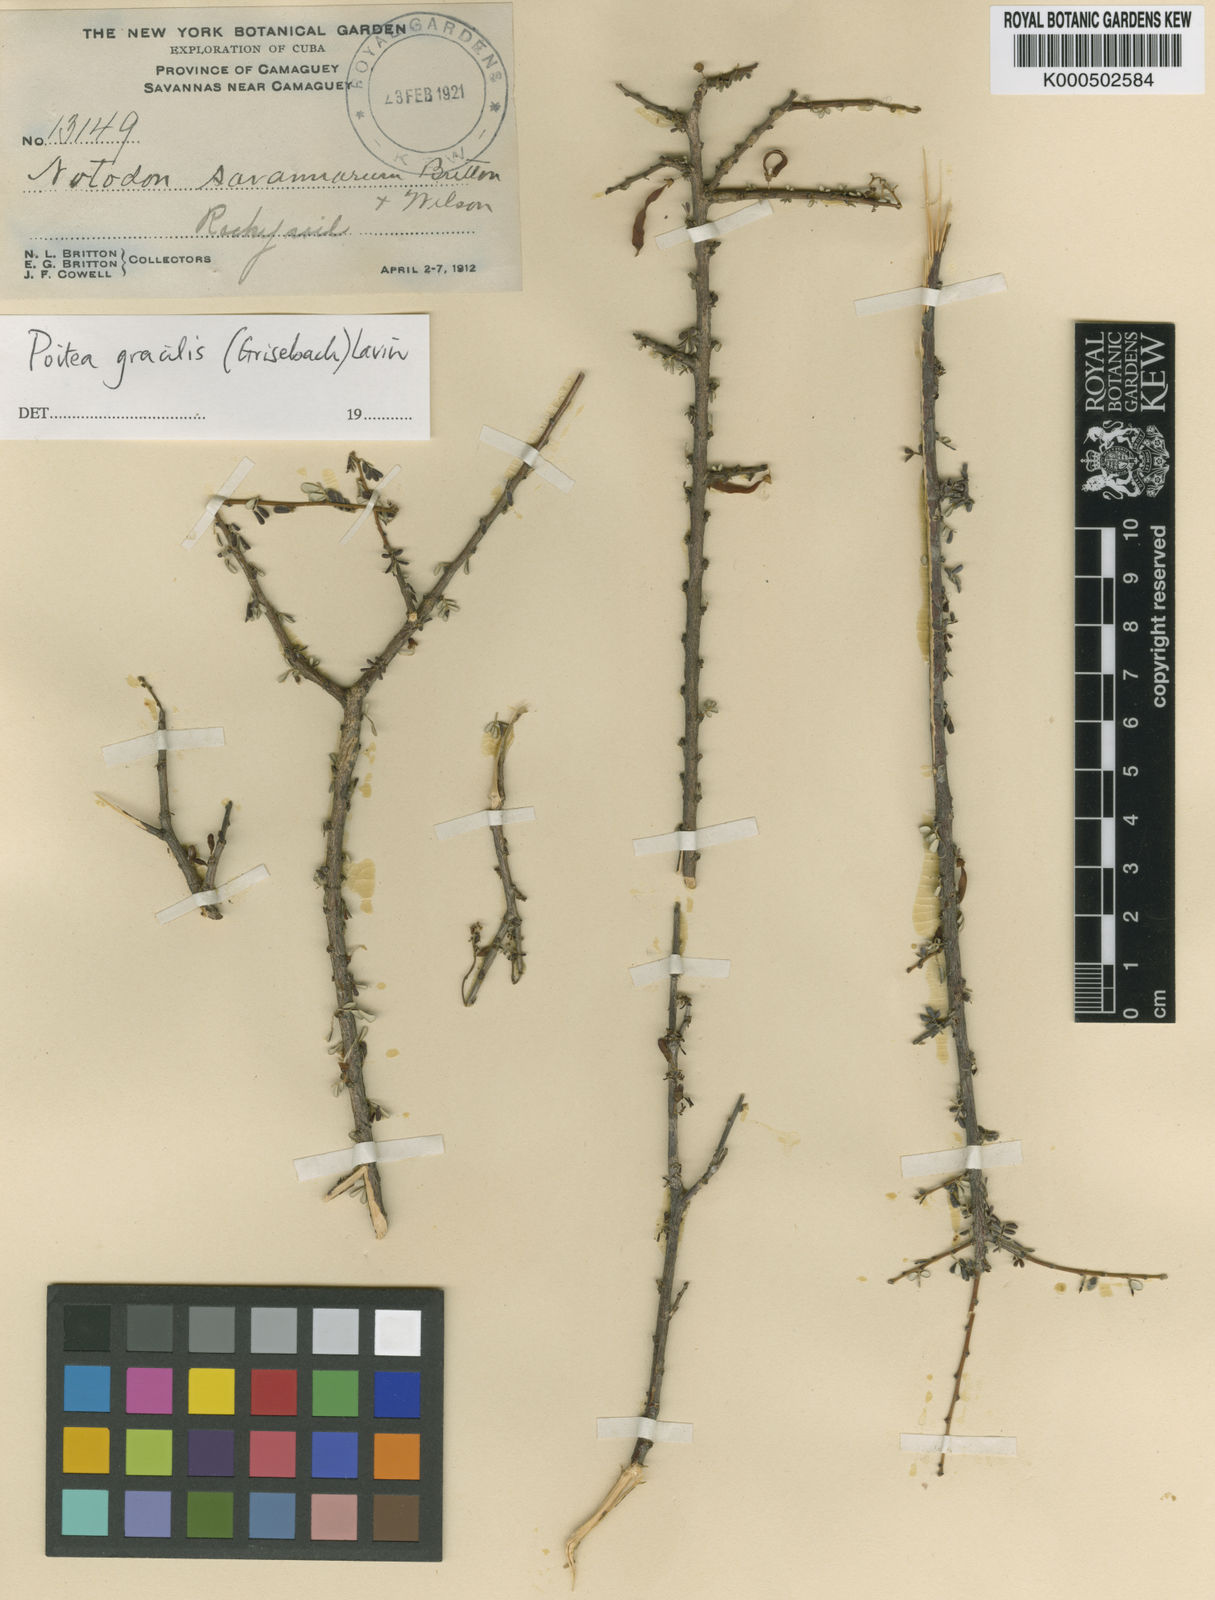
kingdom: Plantae
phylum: Tracheophyta
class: Magnoliopsida
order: Fabales
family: Fabaceae
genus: Poitea
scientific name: Poitea gracilis
